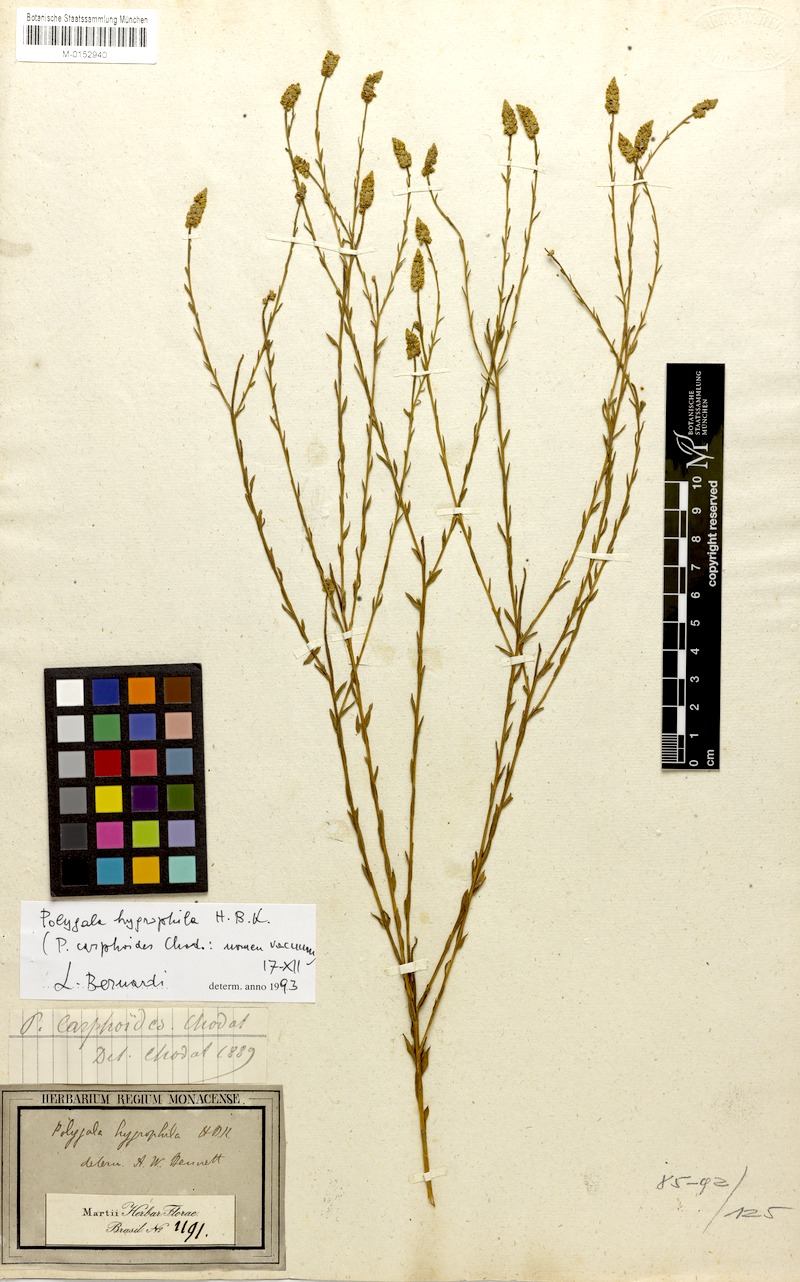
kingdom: Plantae
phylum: Tracheophyta
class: Magnoliopsida
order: Fabales
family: Polygalaceae
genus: Polygala
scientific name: Polygala hygrophila
